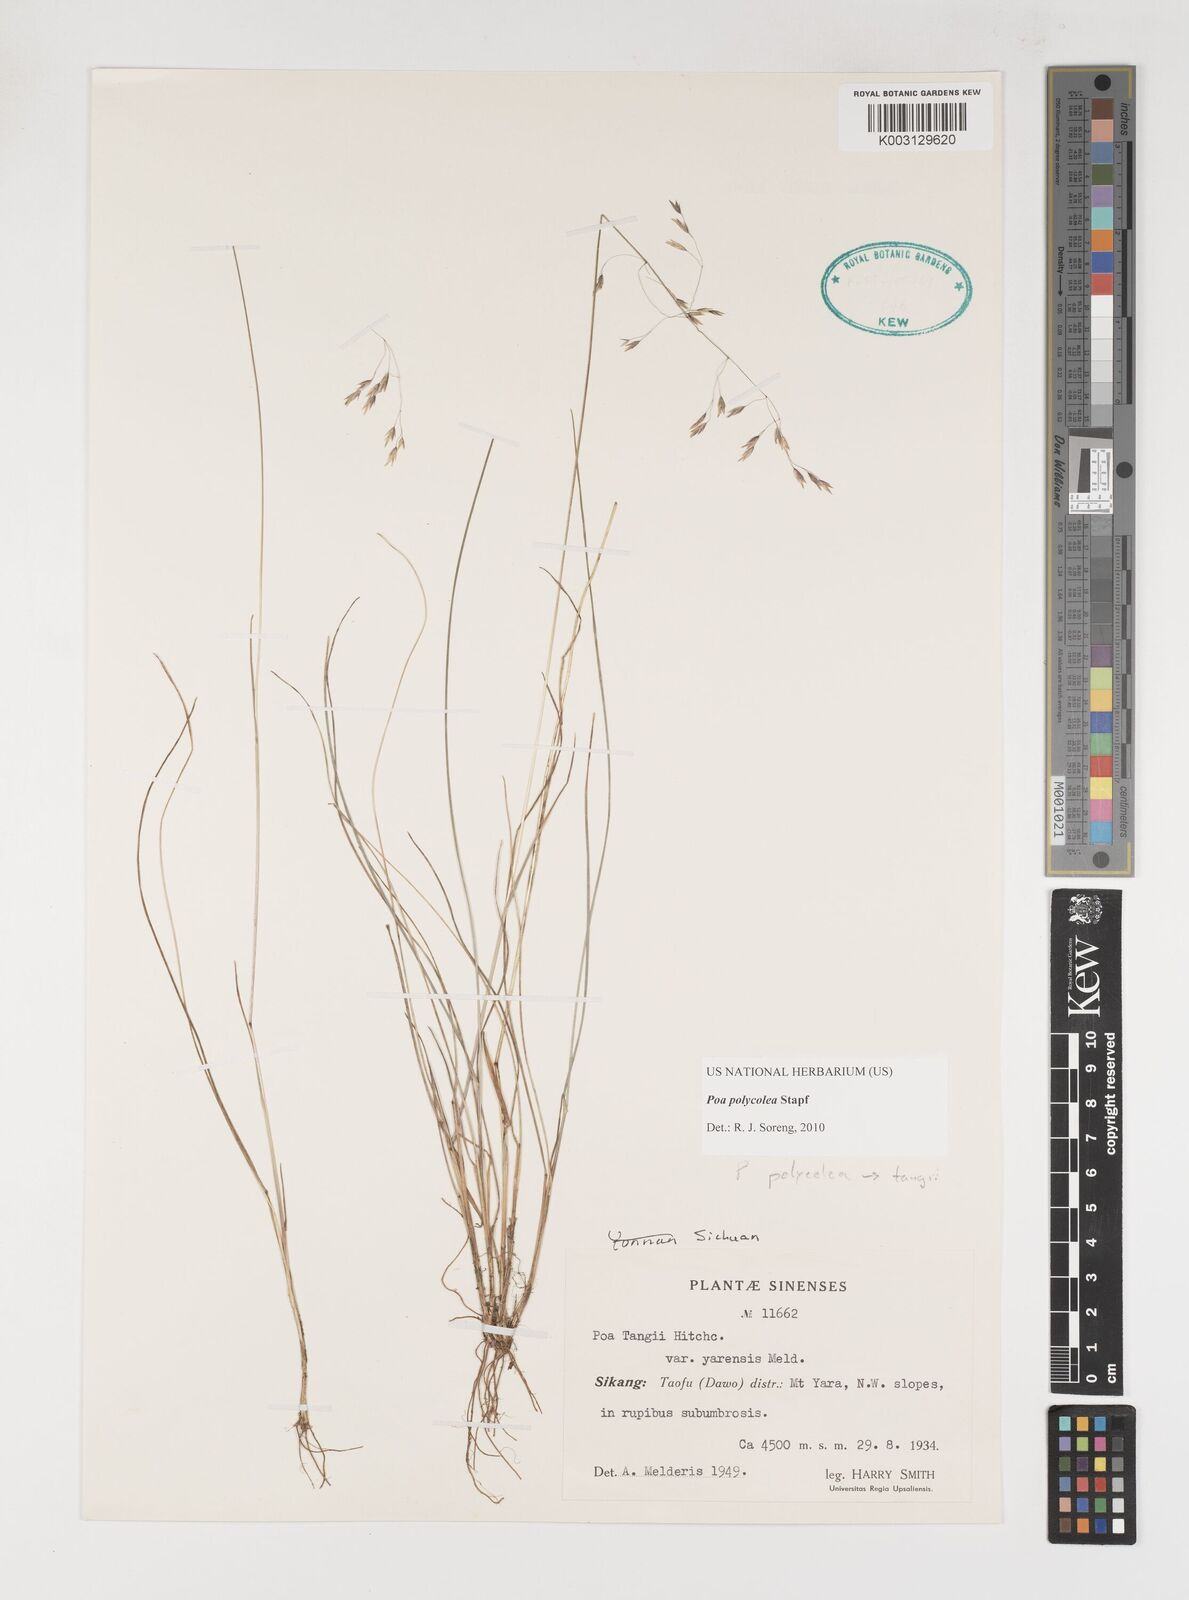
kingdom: Plantae
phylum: Tracheophyta
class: Liliopsida
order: Poales
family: Poaceae
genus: Poa
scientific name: Poa polycolea
